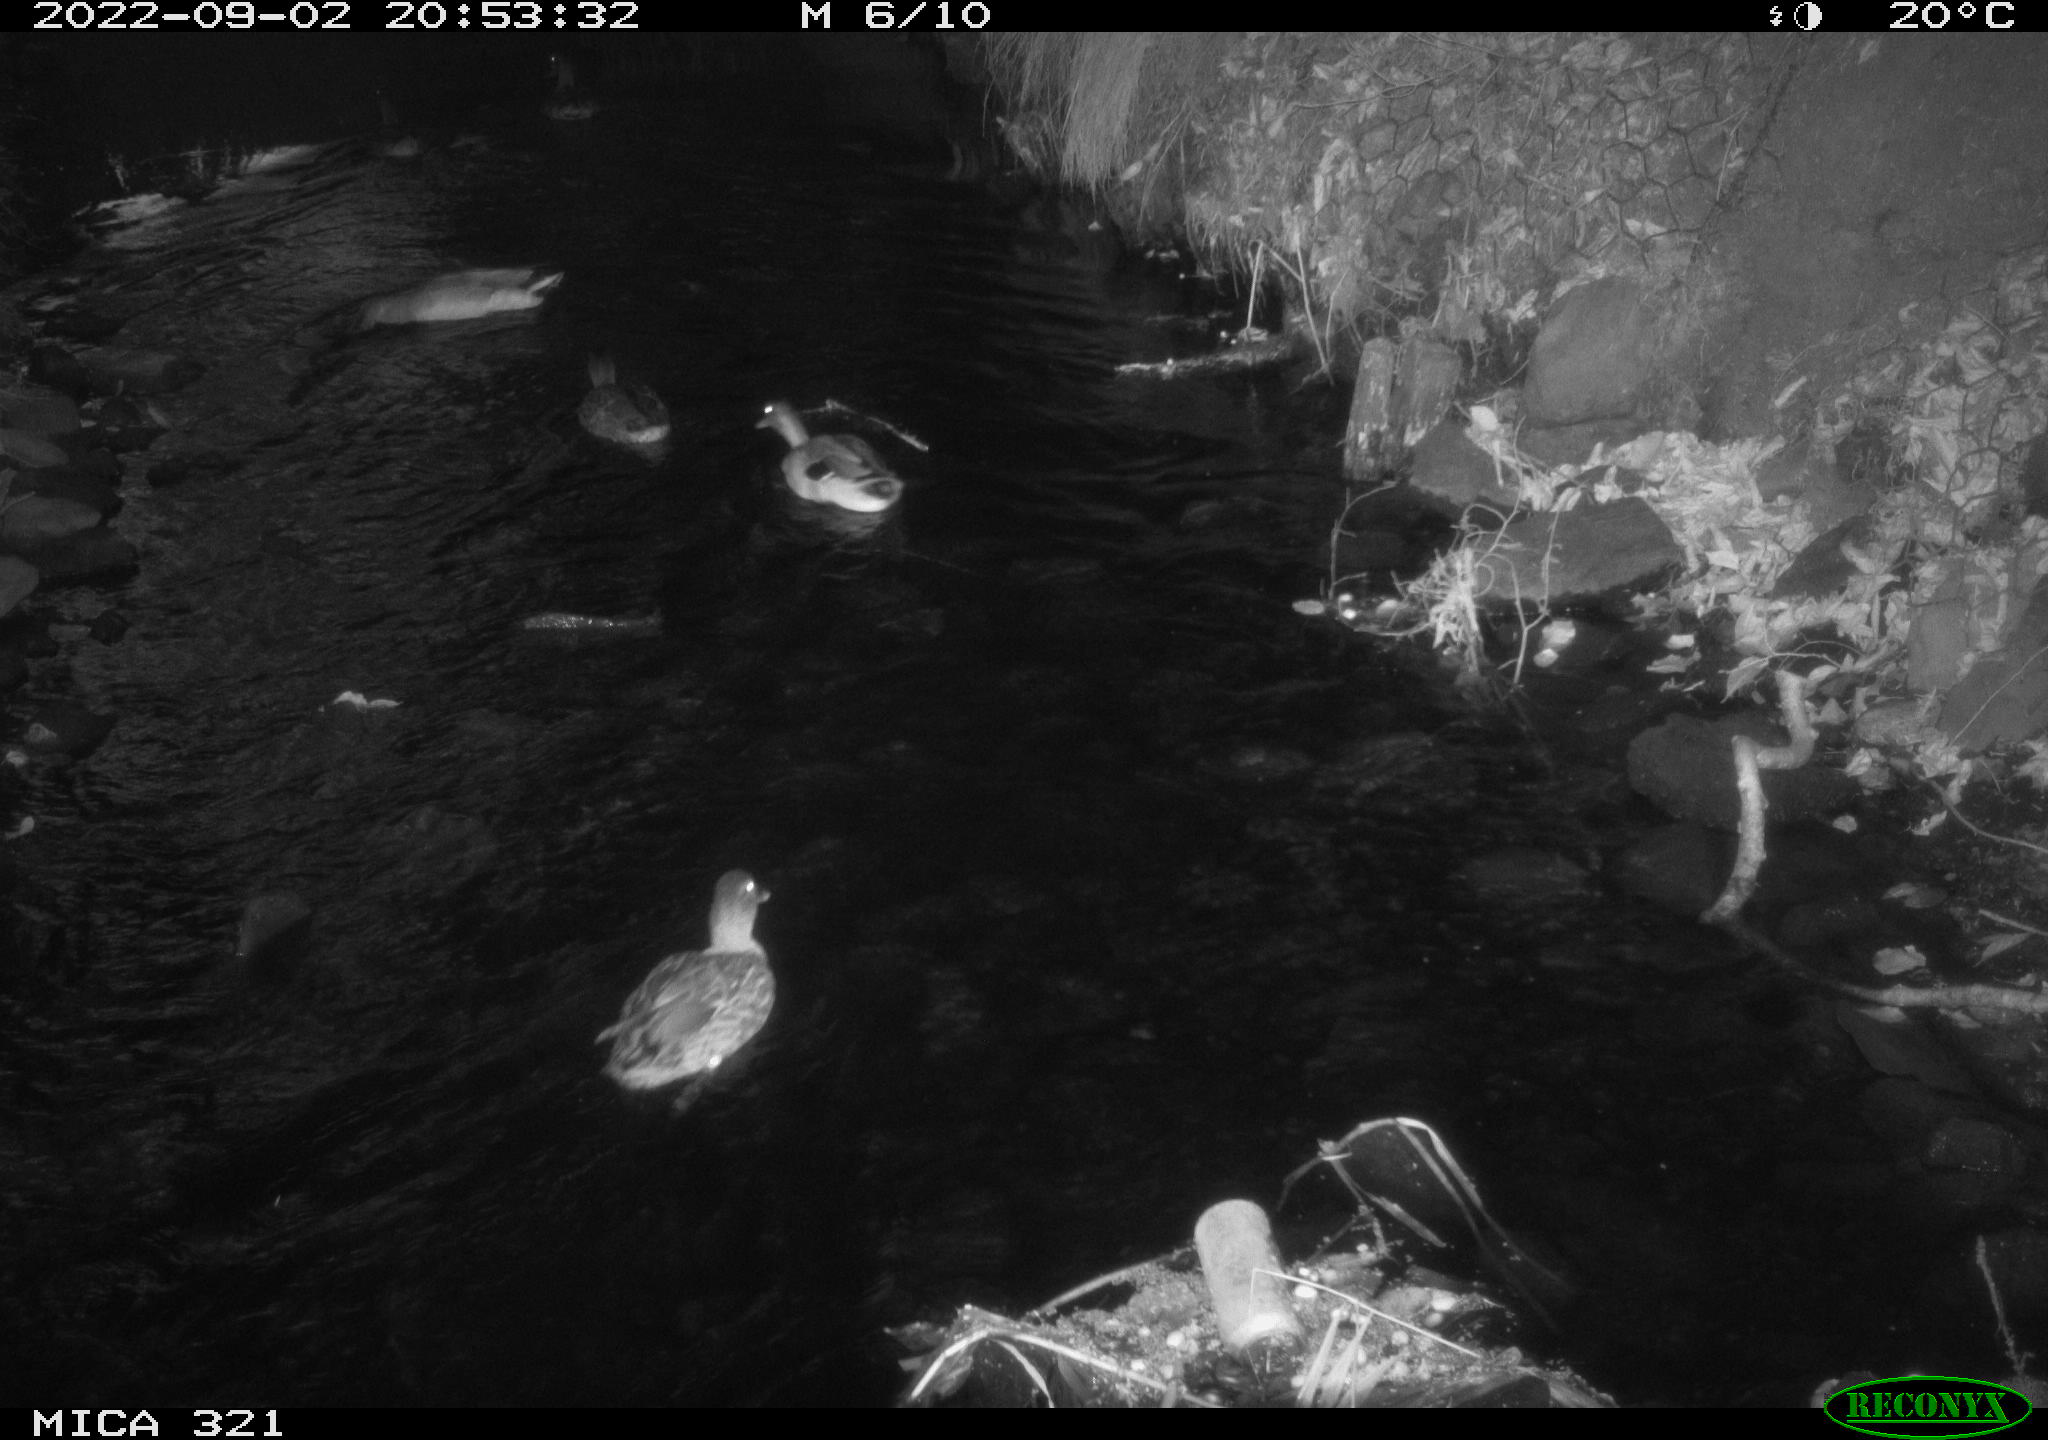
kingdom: Animalia
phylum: Chordata
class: Aves
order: Anseriformes
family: Anatidae
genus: Anas
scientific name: Anas platyrhynchos
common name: Mallard
